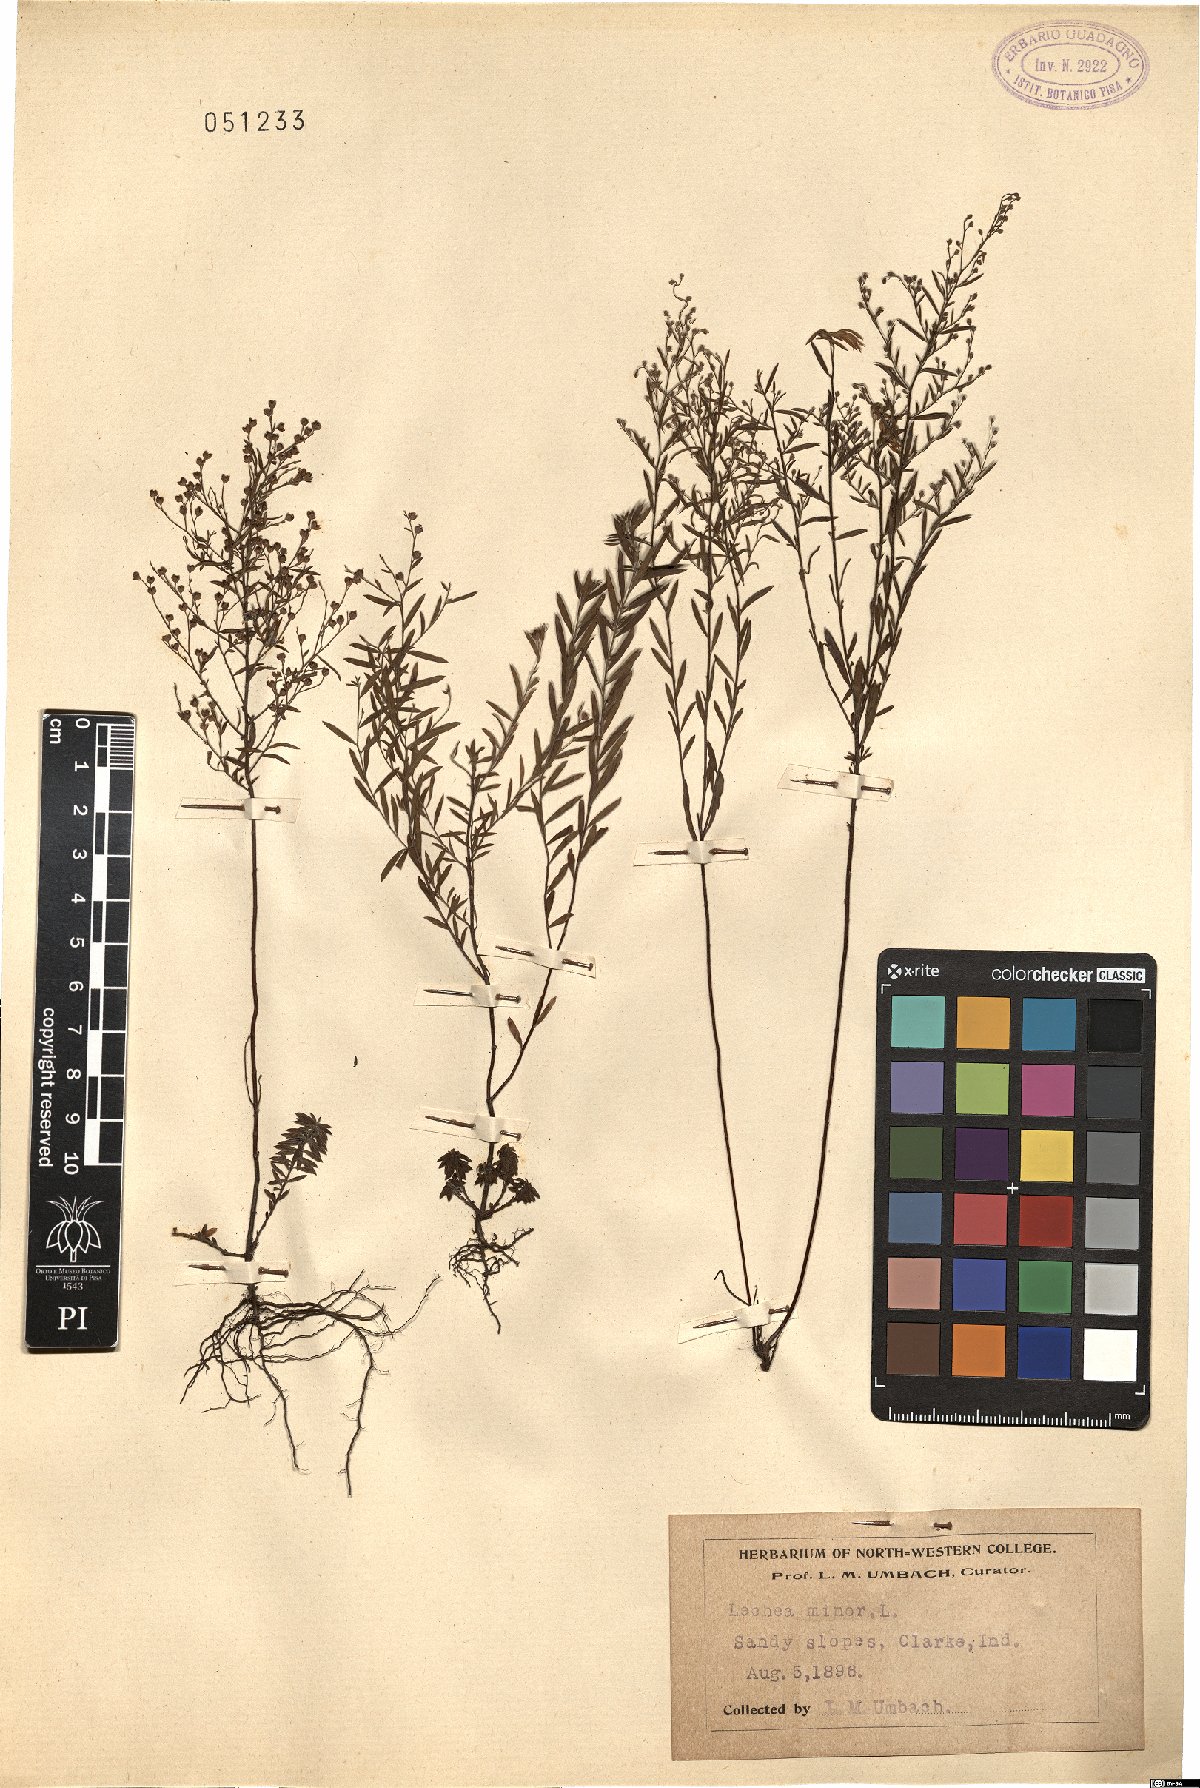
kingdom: Plantae
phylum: Tracheophyta
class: Magnoliopsida
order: Malvales
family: Cistaceae
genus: Lechea
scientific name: Lechea minor
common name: Thyme-leaf pinweed
